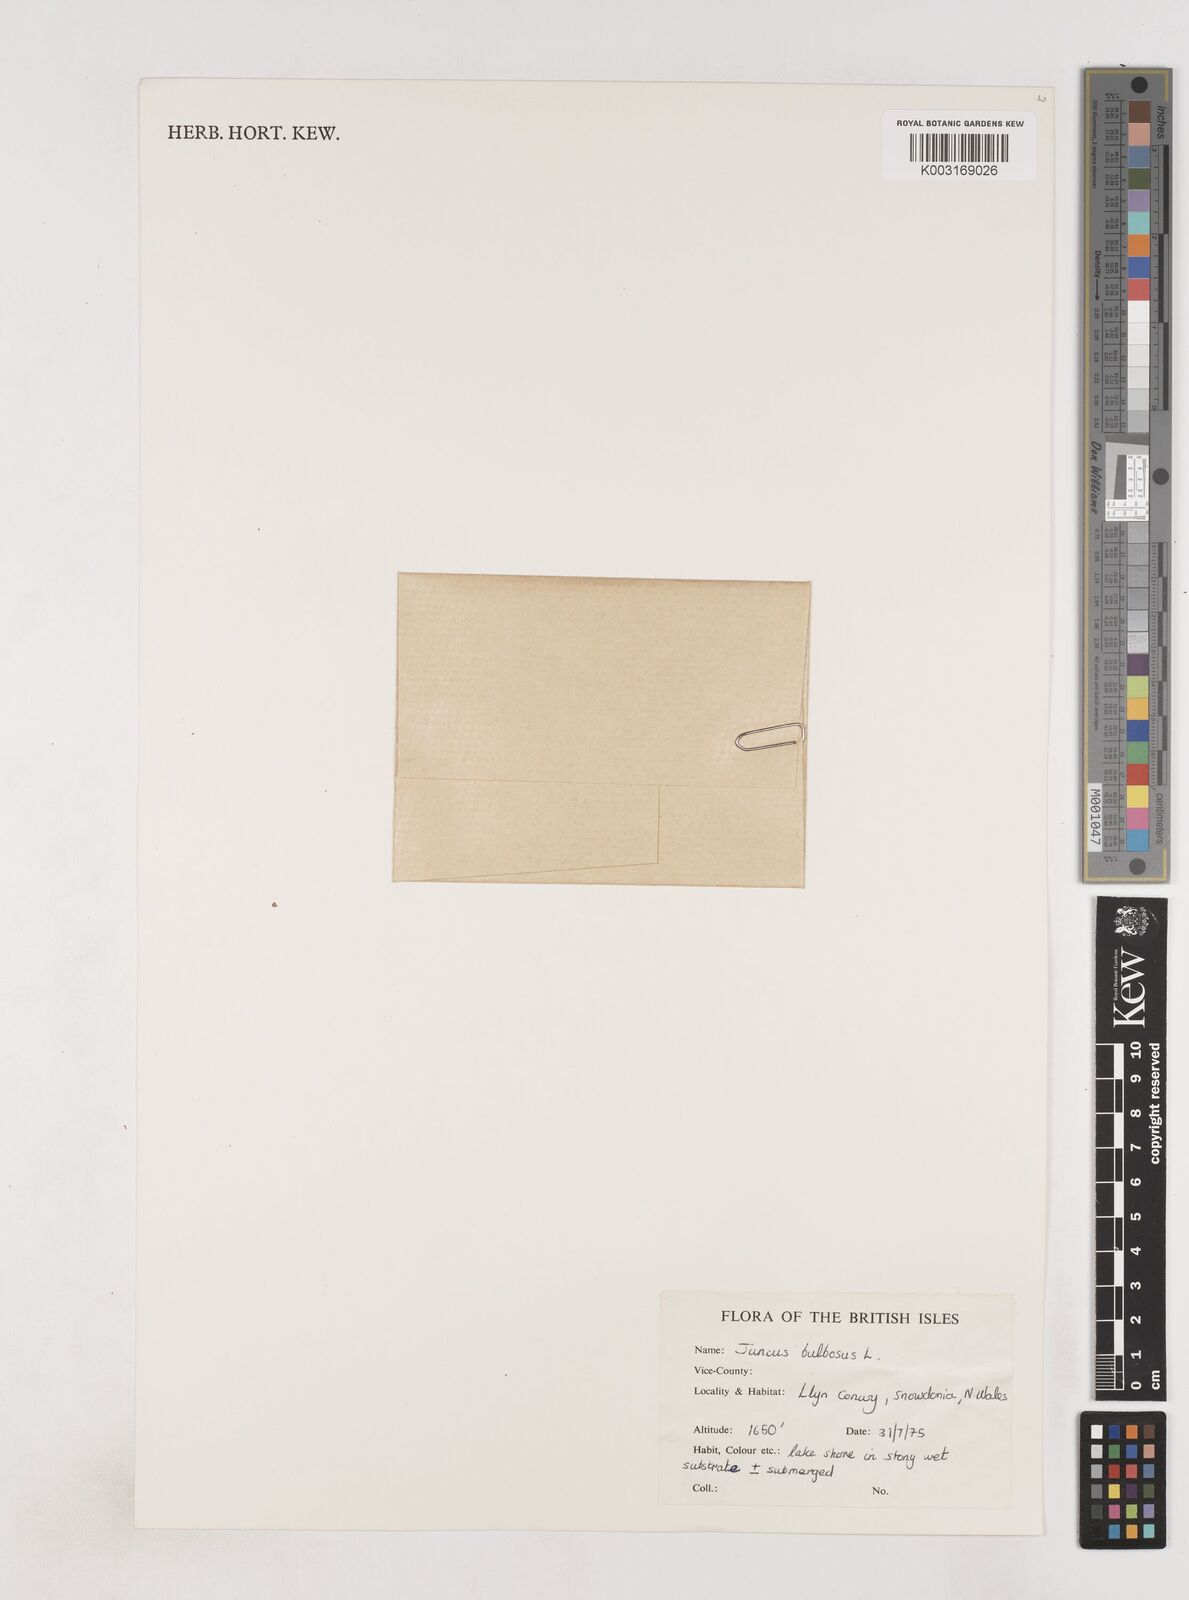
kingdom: Plantae
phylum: Tracheophyta
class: Liliopsida
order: Poales
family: Juncaceae
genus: Juncus
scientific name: Juncus bulbosus
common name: Bulbous rush
